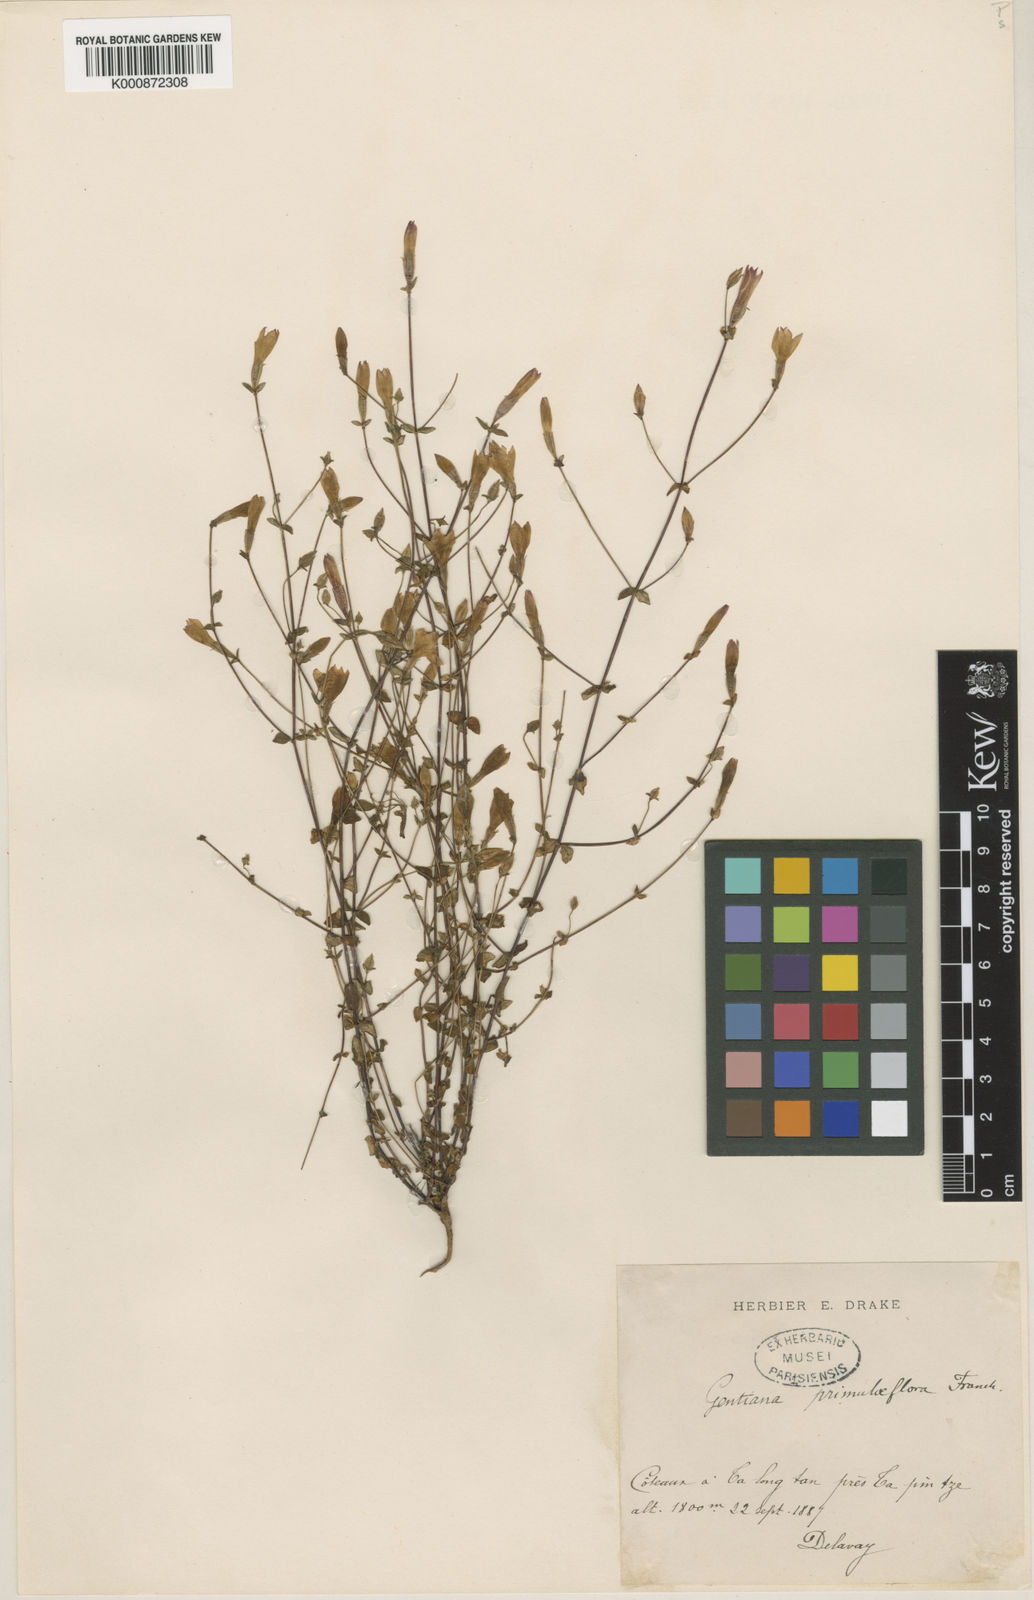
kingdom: Plantae
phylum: Tracheophyta
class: Magnoliopsida
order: Gentianales
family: Gentianaceae
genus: Metagentiana
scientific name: Metagentiana primuliflora
